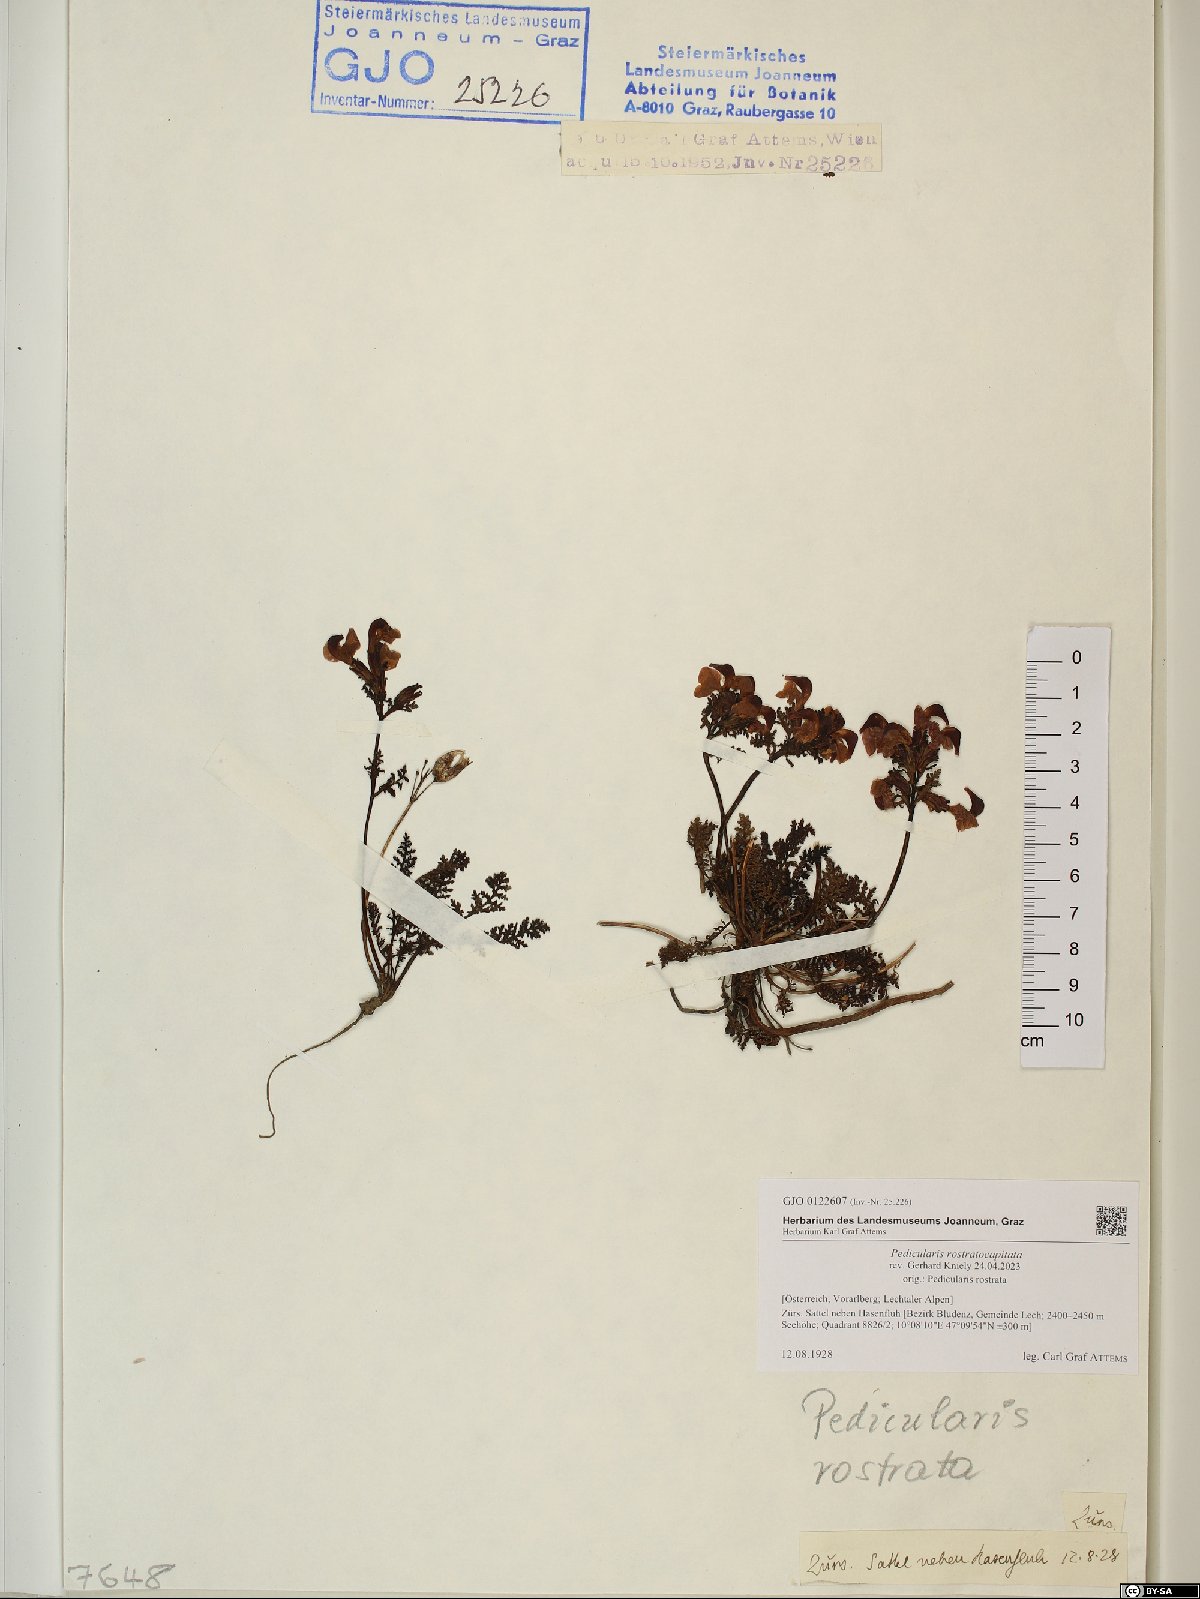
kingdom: Plantae
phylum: Tracheophyta
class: Magnoliopsida
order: Lamiales
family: Orobanchaceae
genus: Pedicularis
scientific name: Pedicularis rostratocapitata
